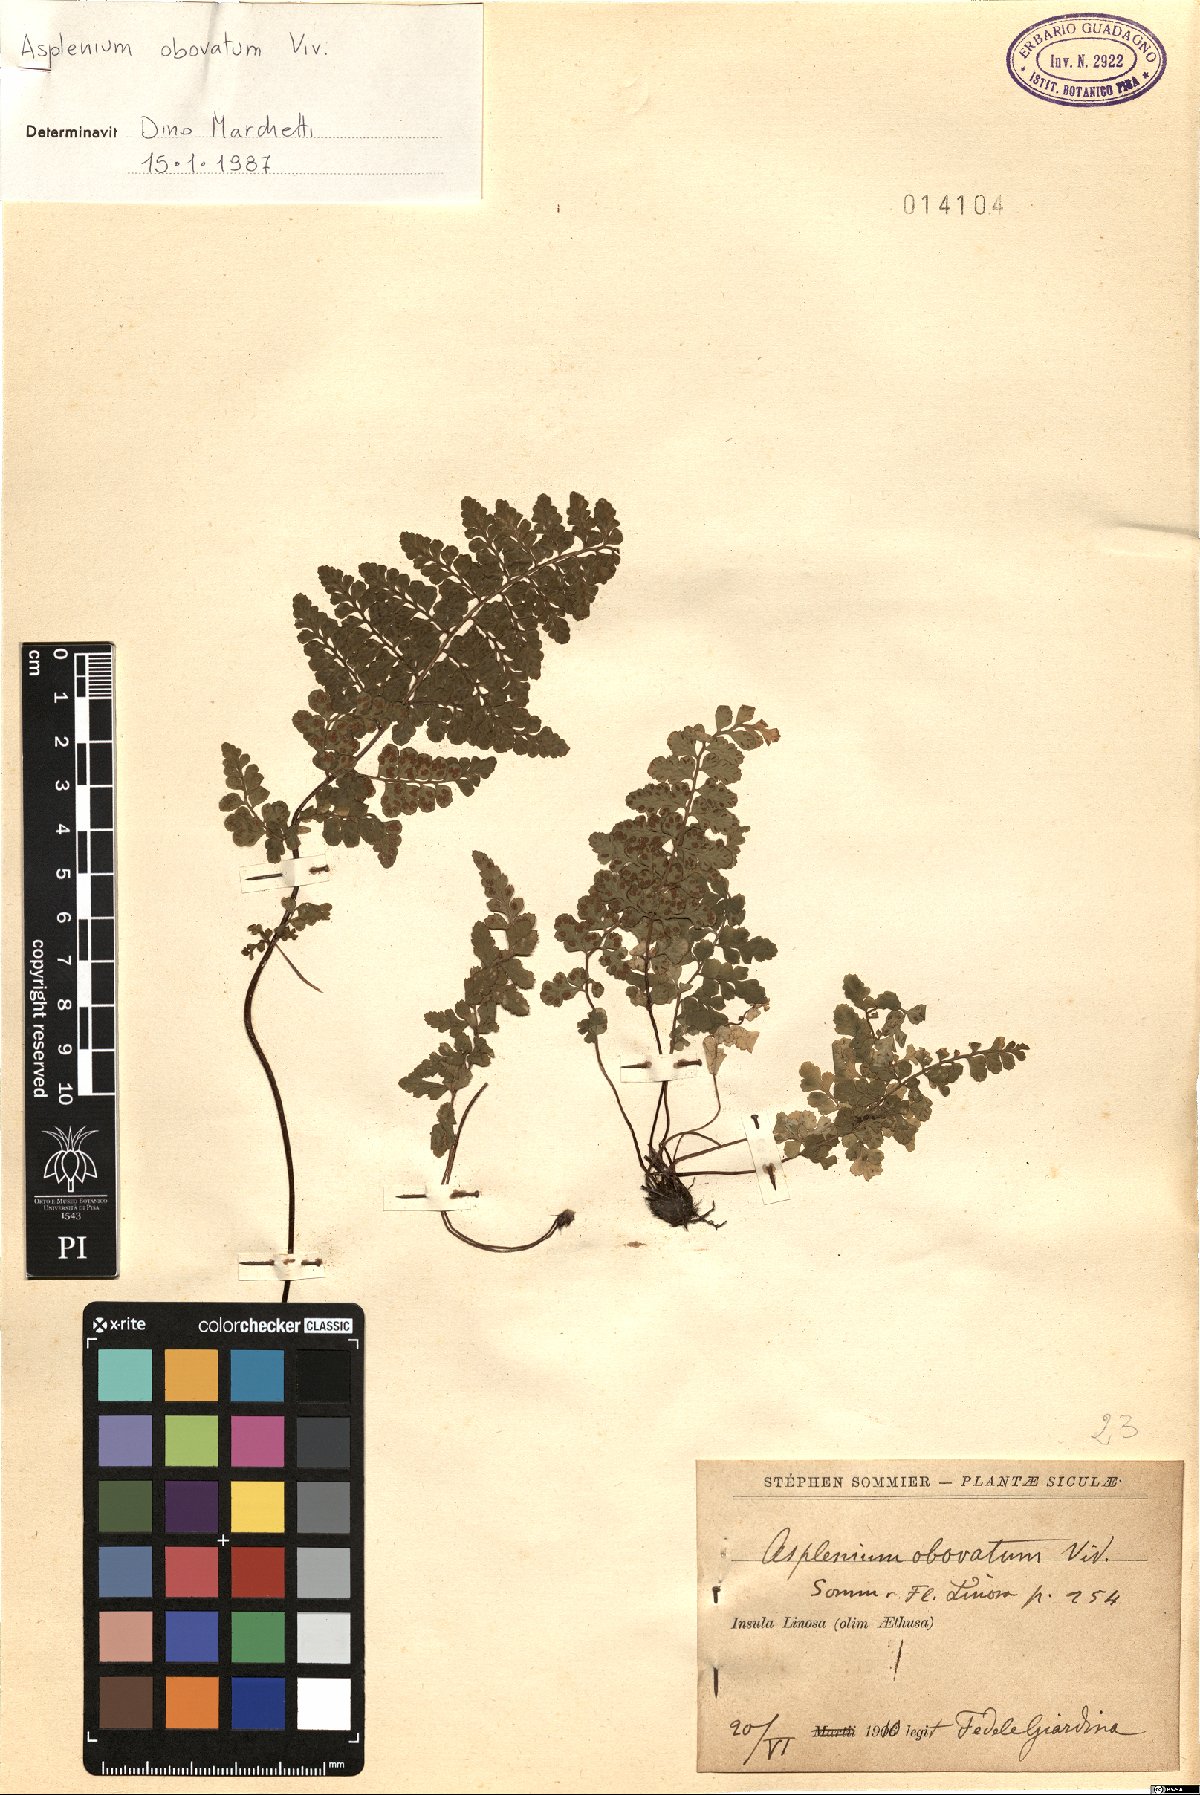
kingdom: Plantae
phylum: Tracheophyta
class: Polypodiopsida
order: Polypodiales
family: Aspleniaceae
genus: Asplenium
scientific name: Asplenium obovatum
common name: Lanceolate spleenwort
